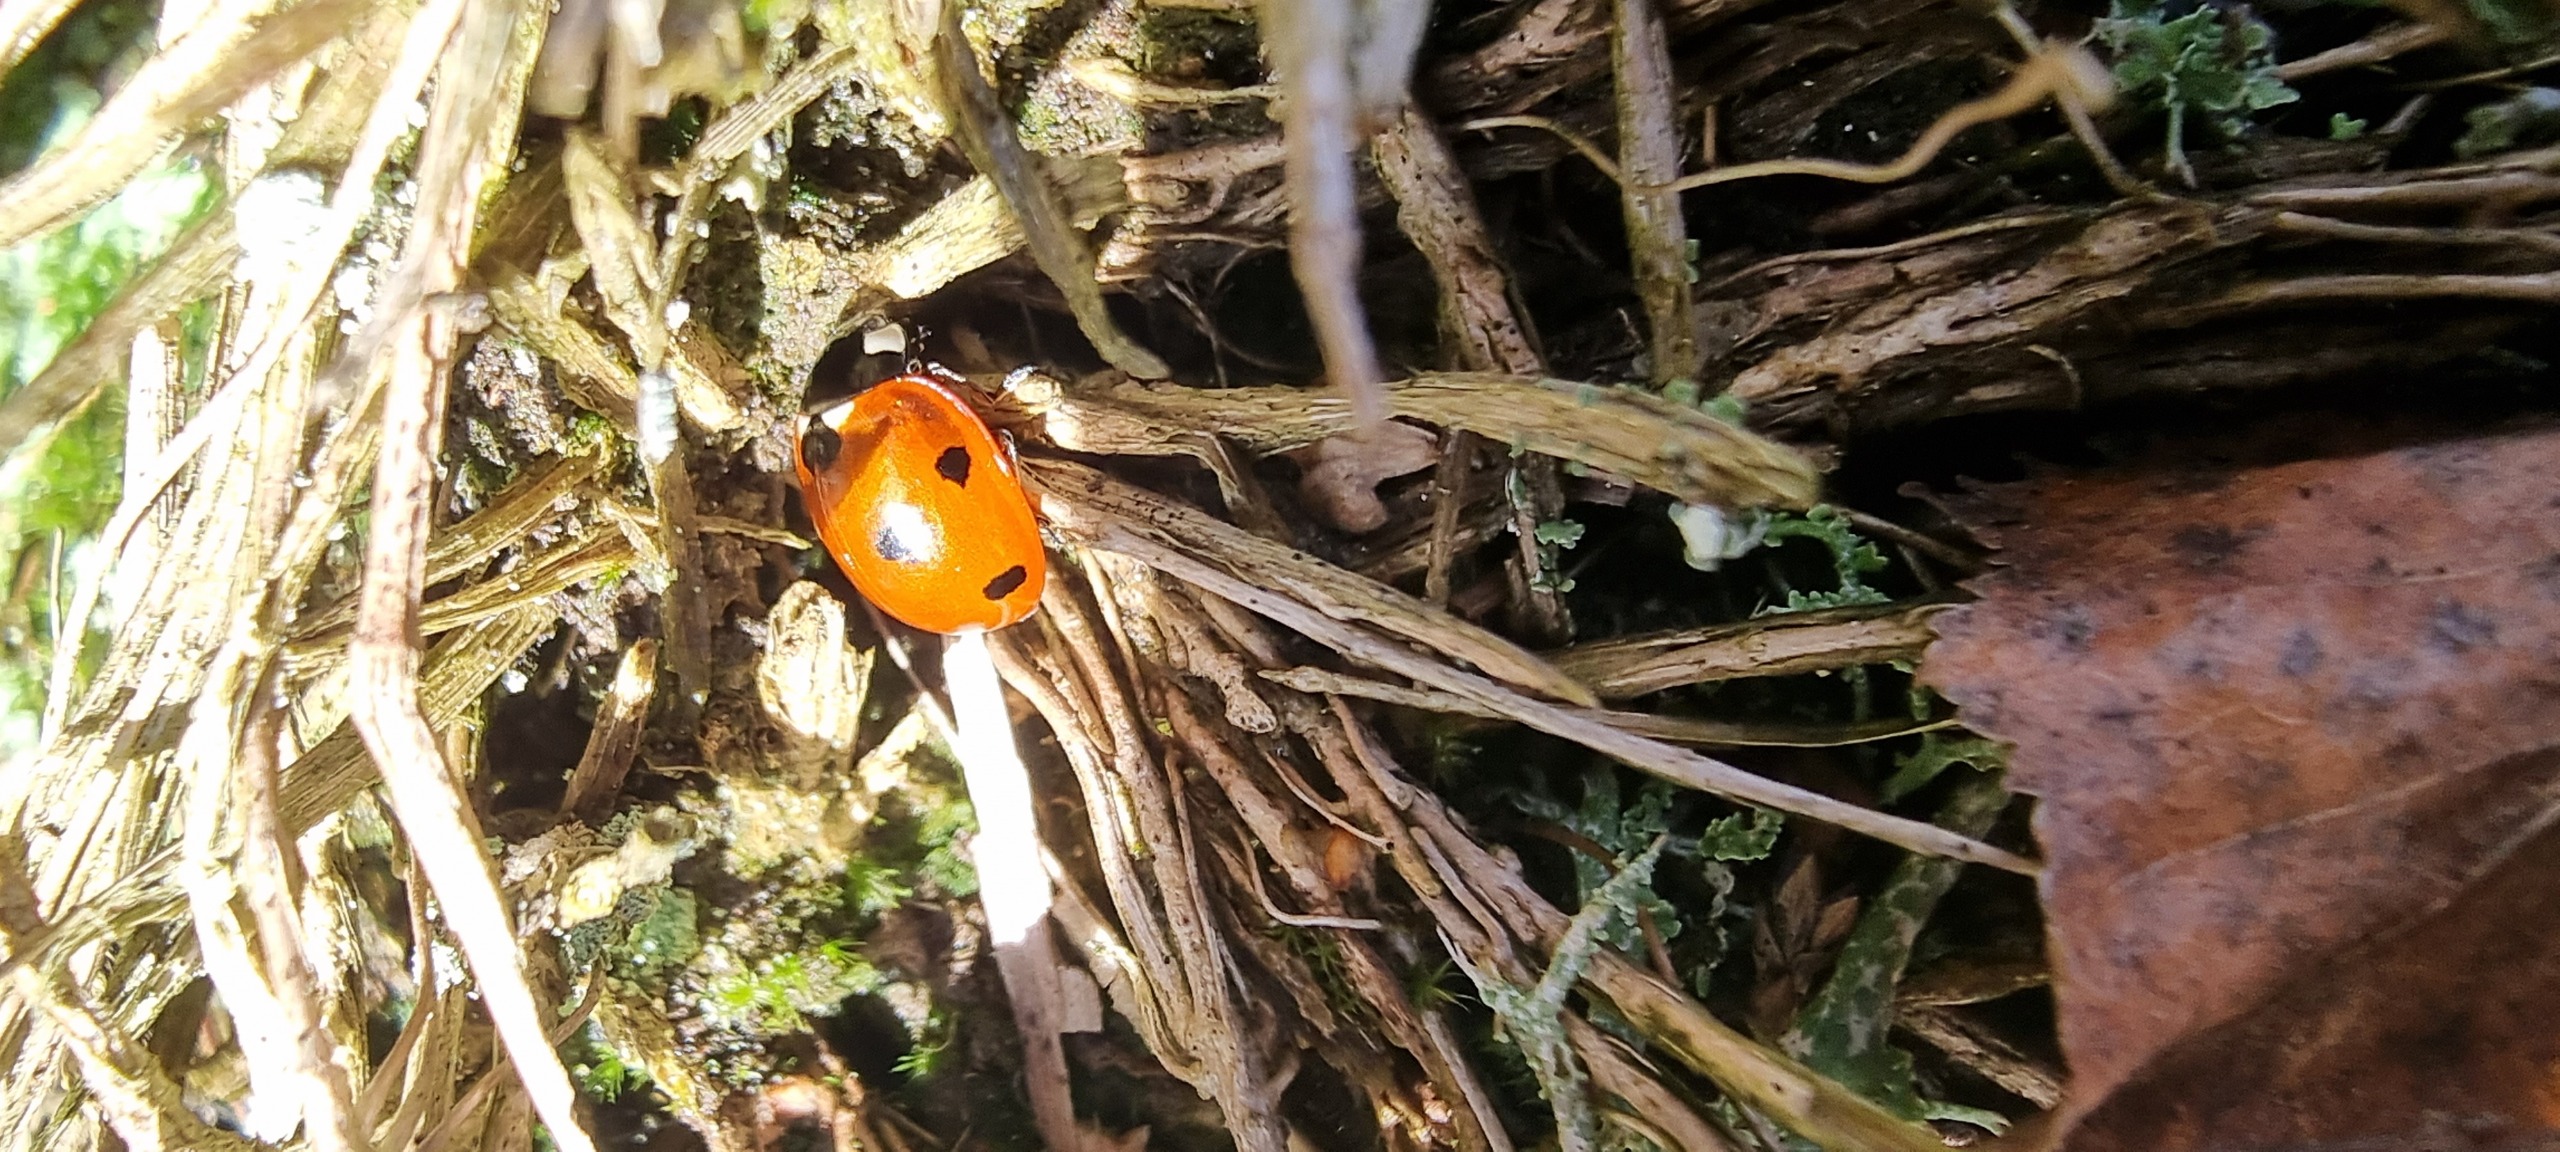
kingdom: Animalia
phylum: Arthropoda
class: Insecta
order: Coleoptera
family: Coccinellidae
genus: Coccinella
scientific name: Coccinella septempunctata
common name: Syvplettet mariehøne
